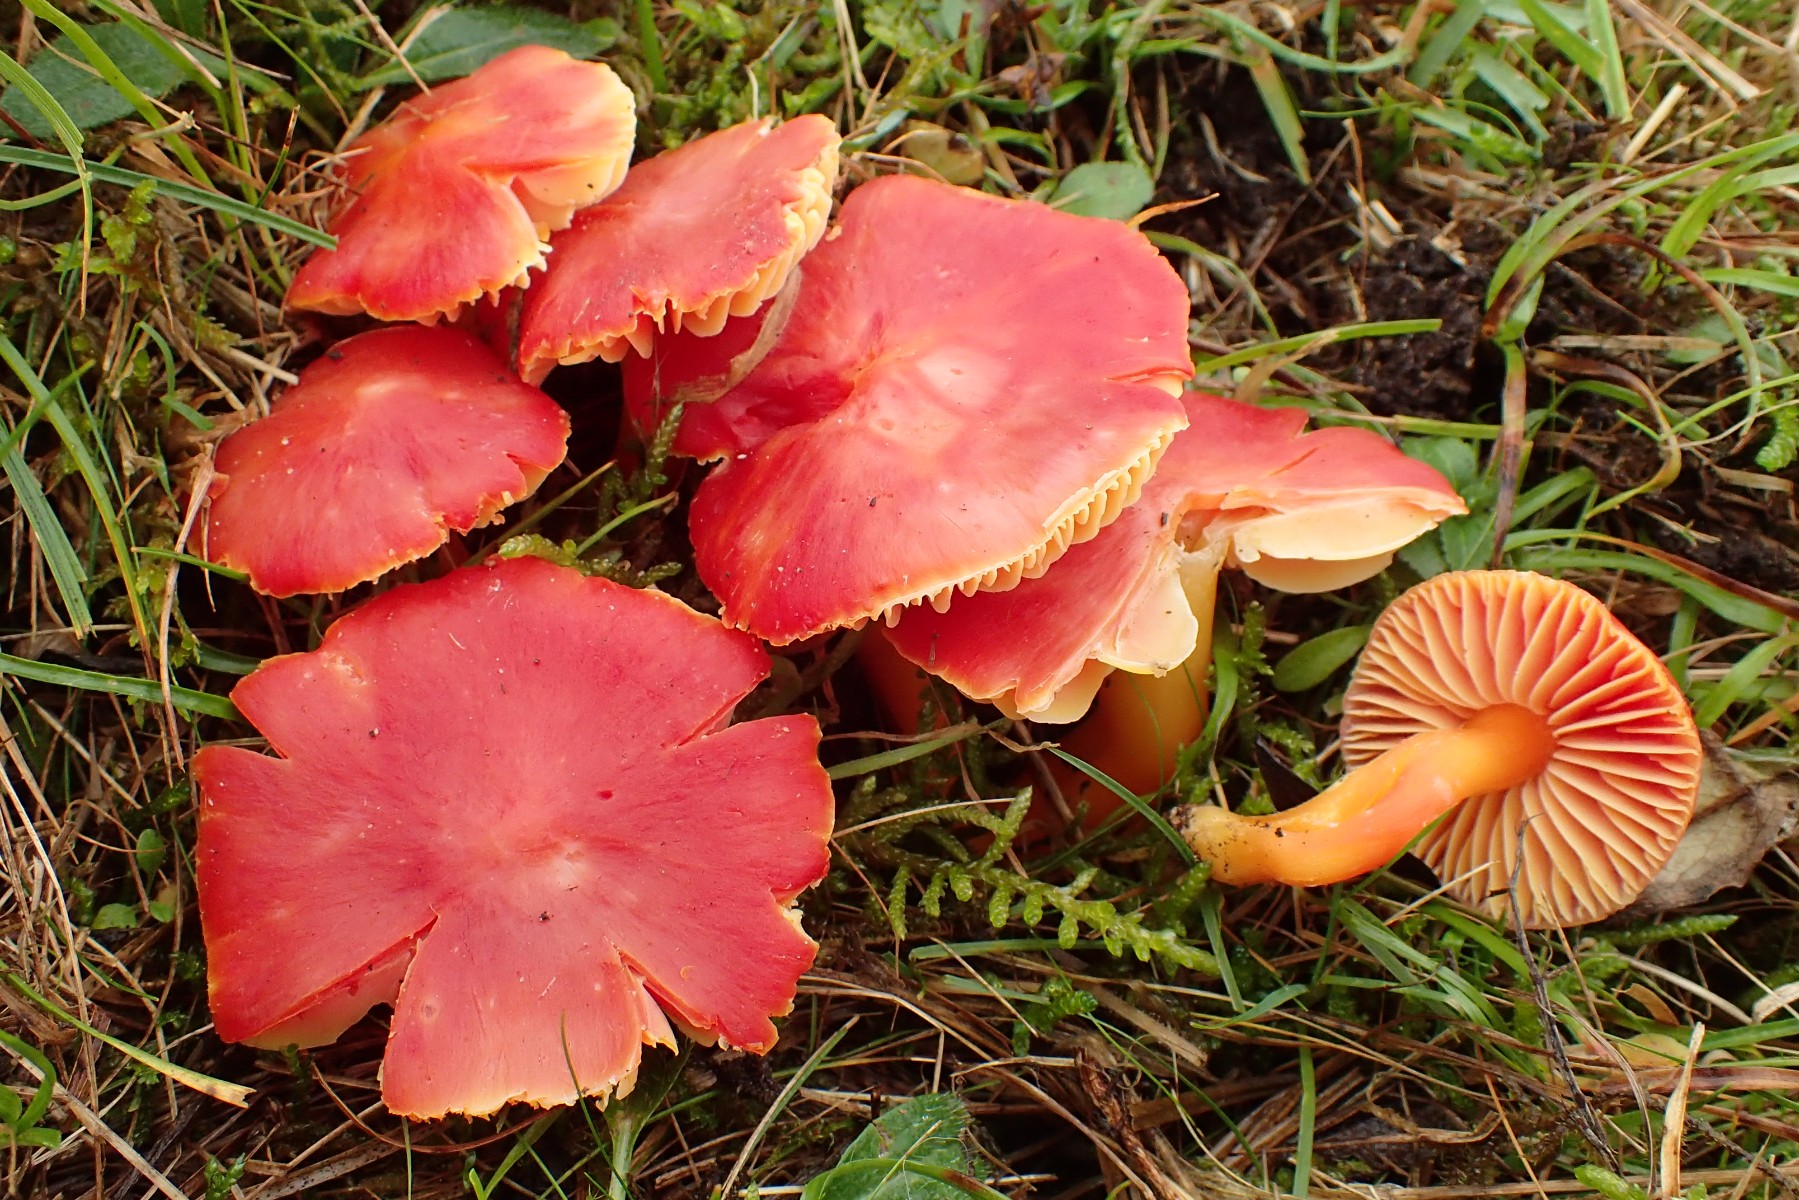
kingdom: Fungi
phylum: Basidiomycota
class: Agaricomycetes
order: Agaricales
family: Hygrophoraceae
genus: Hygrocybe
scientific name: Hygrocybe splendidissima
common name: knaldrød vokshat
